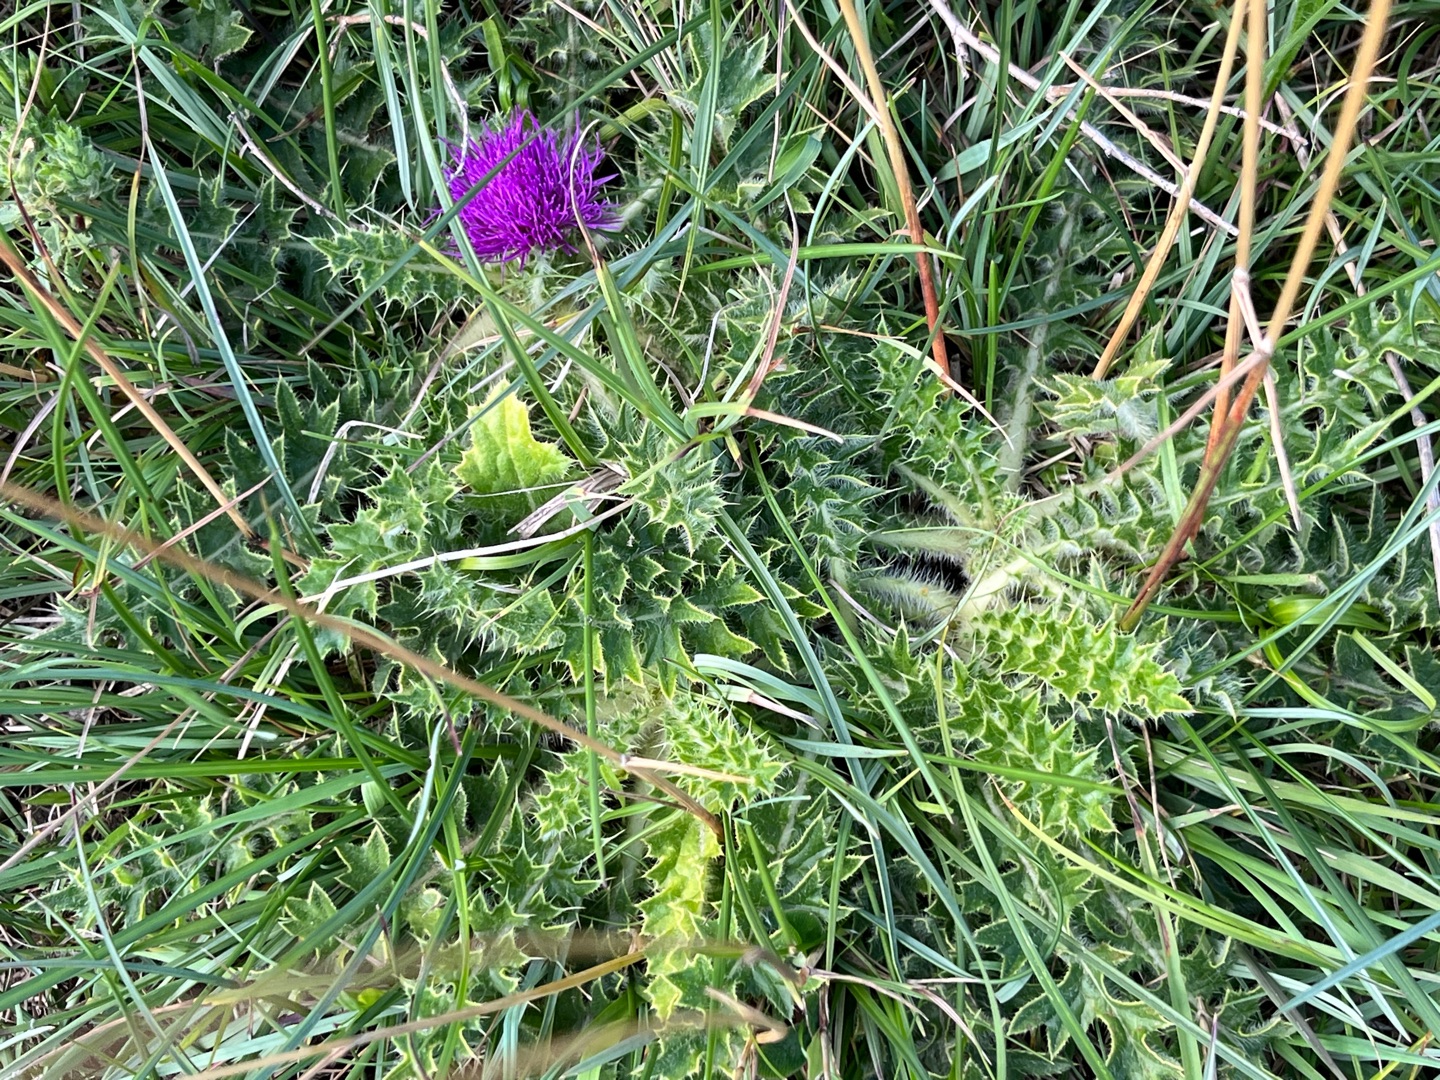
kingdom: Plantae
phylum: Tracheophyta
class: Magnoliopsida
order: Asterales
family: Asteraceae
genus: Cirsium
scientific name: Cirsium acaule
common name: Lav tidsel
